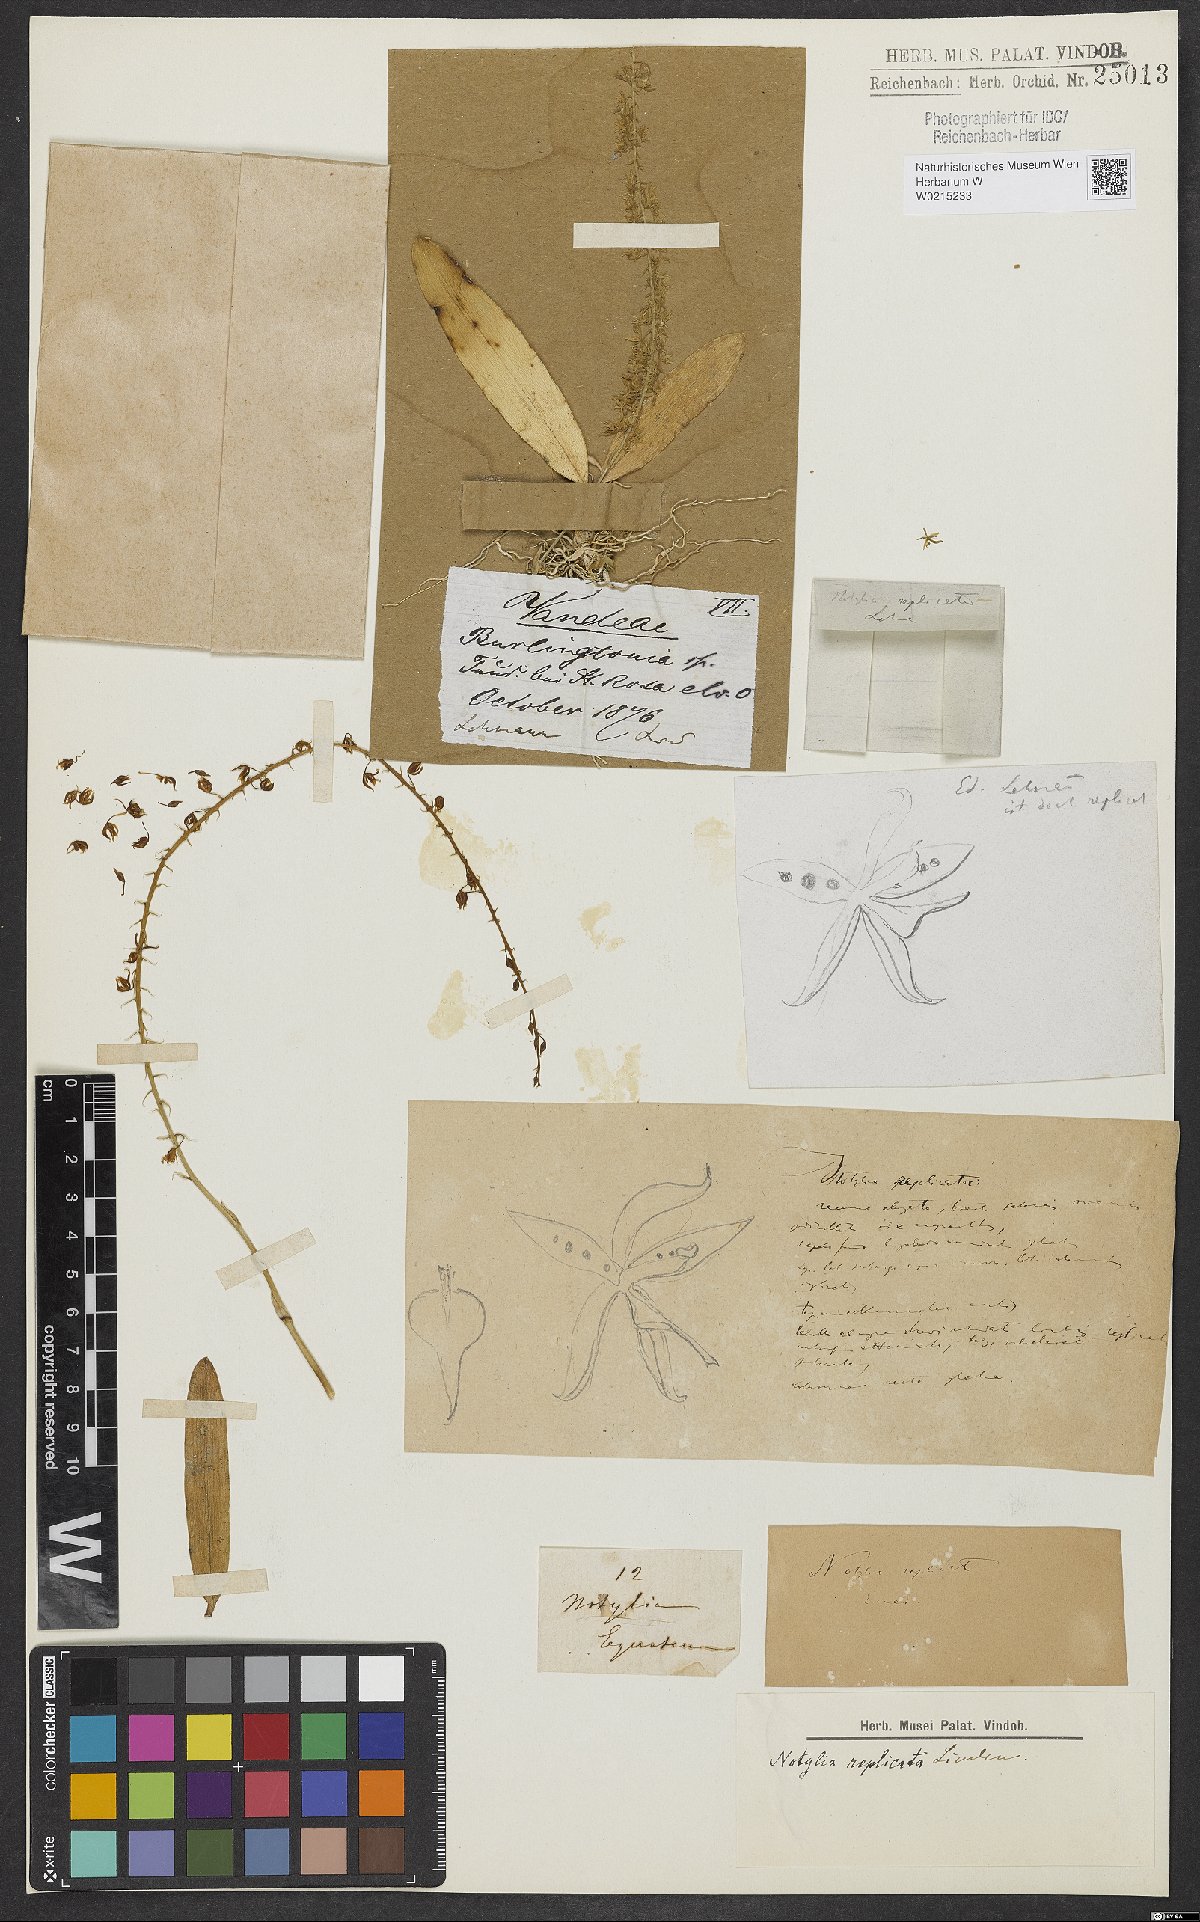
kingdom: Plantae
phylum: Tracheophyta
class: Liliopsida
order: Asparagales
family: Orchidaceae
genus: Notylia
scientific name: Notylia replicata
